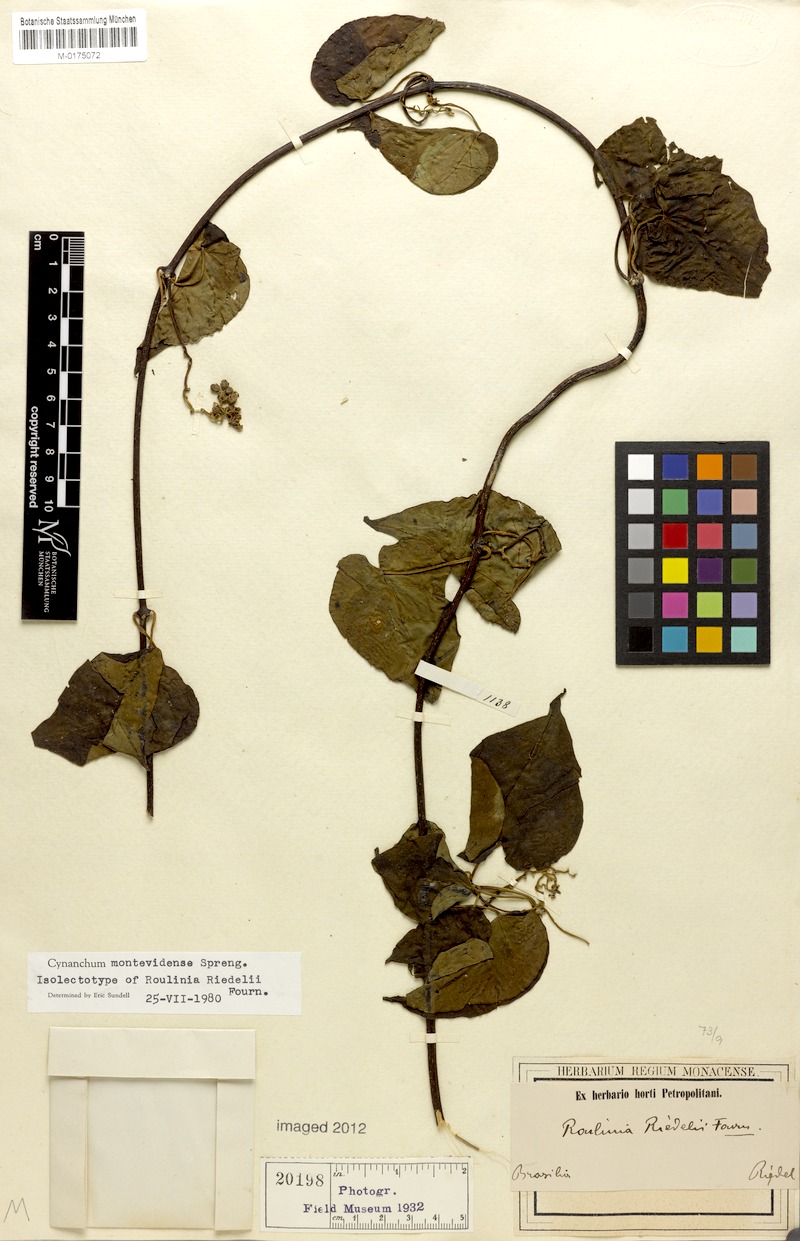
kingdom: Plantae
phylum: Tracheophyta
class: Magnoliopsida
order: Gentianales
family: Apocynaceae
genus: Cynanchum
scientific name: Cynanchum montevidense
